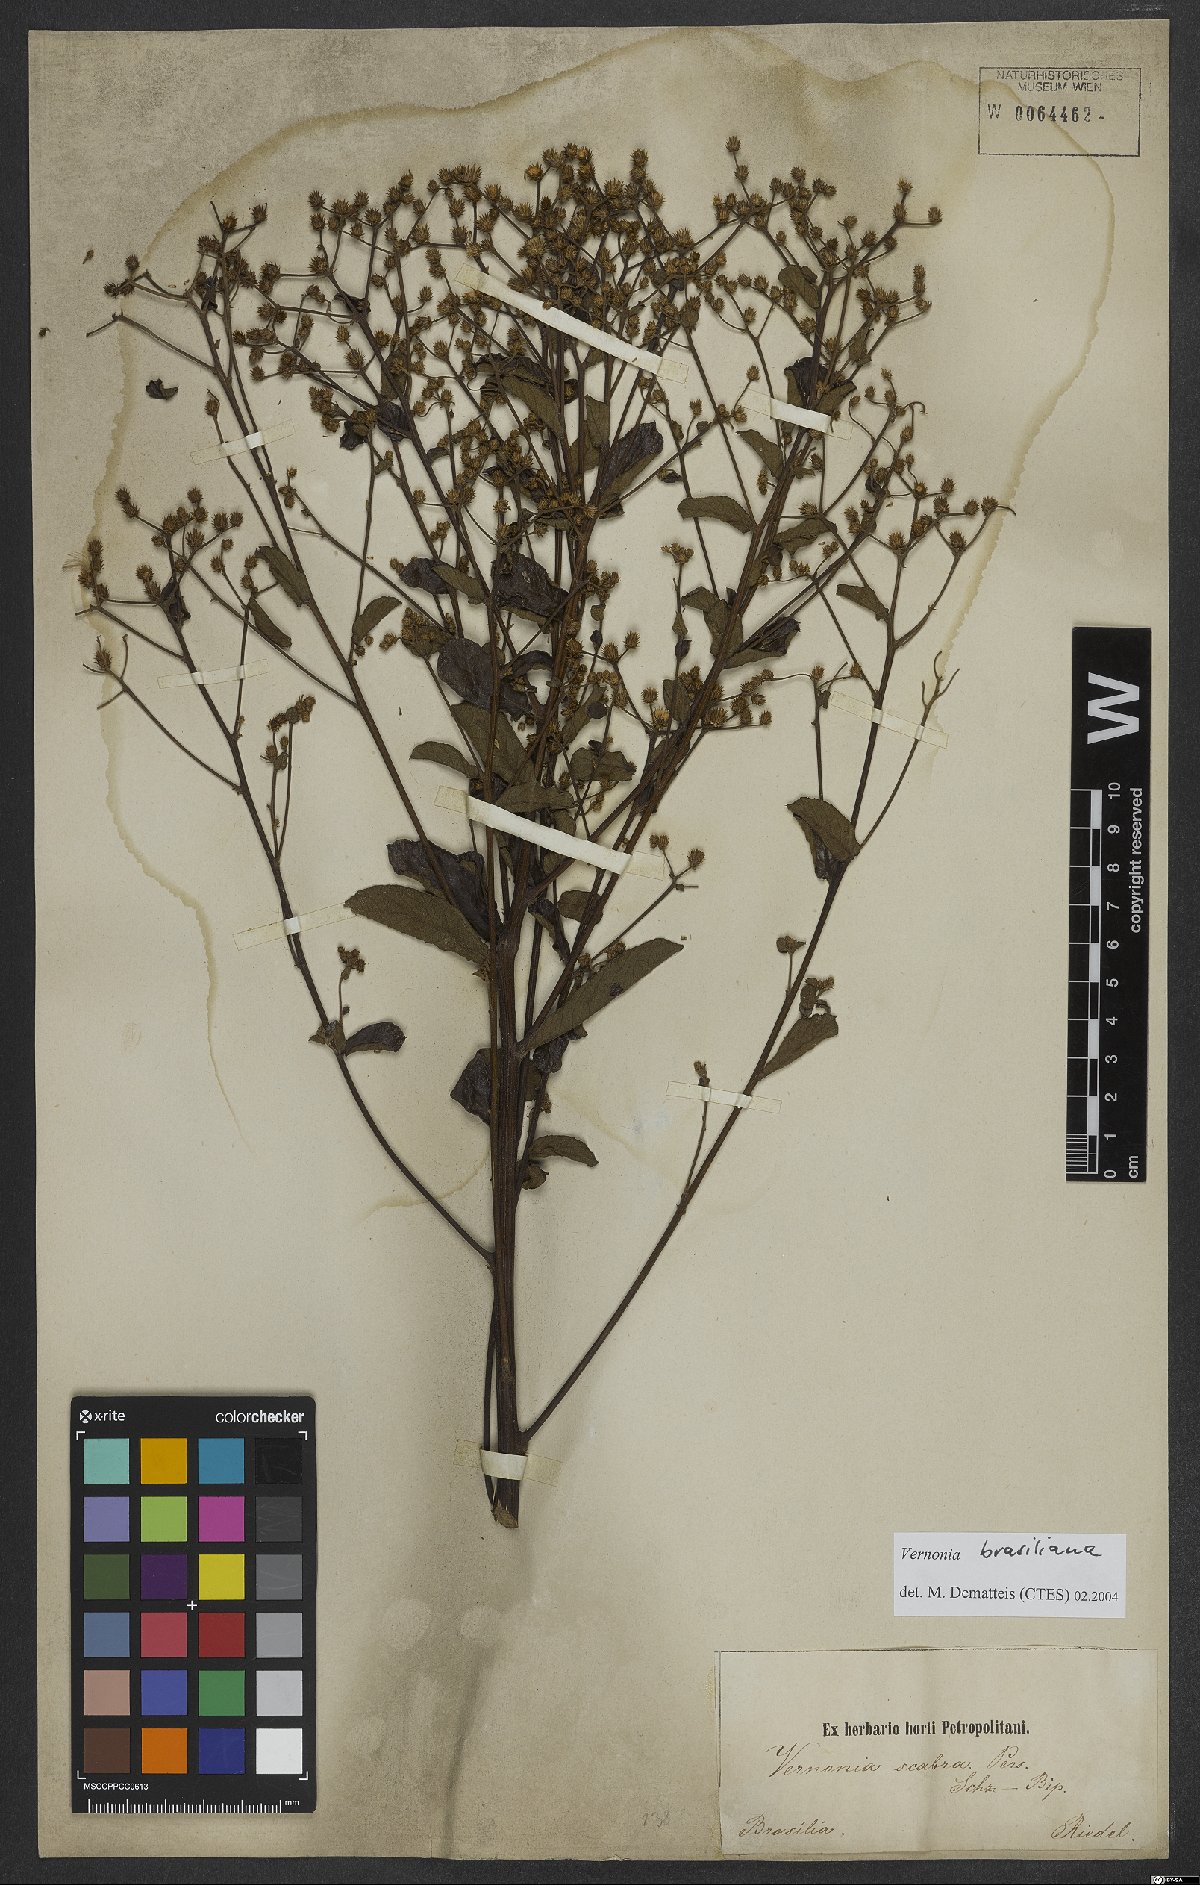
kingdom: Plantae
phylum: Tracheophyta
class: Magnoliopsida
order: Asterales
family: Asteraceae
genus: Vernonanthura
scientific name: Vernonanthura brasiliana
